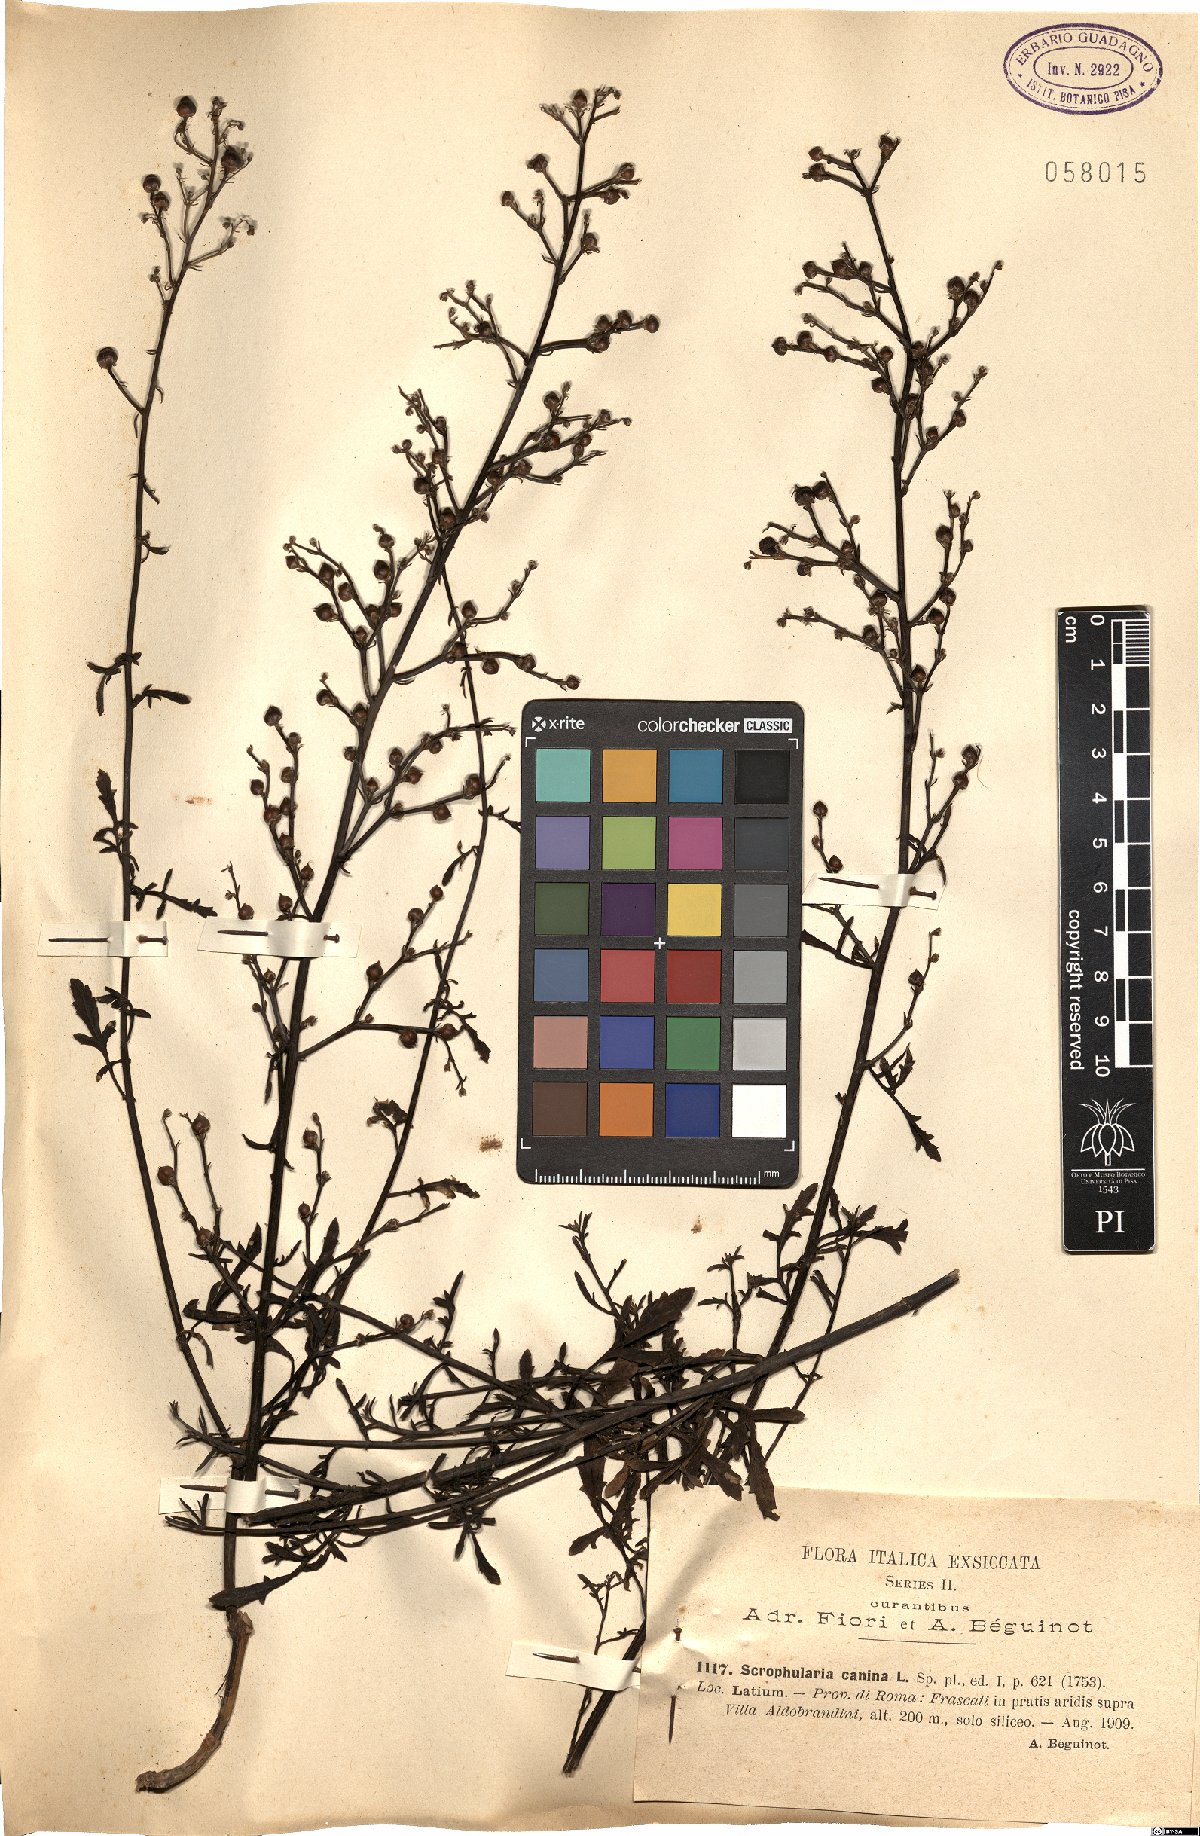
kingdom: Plantae
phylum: Tracheophyta
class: Magnoliopsida
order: Lamiales
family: Scrophulariaceae
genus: Scrophularia
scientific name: Scrophularia canina
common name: French figwort
